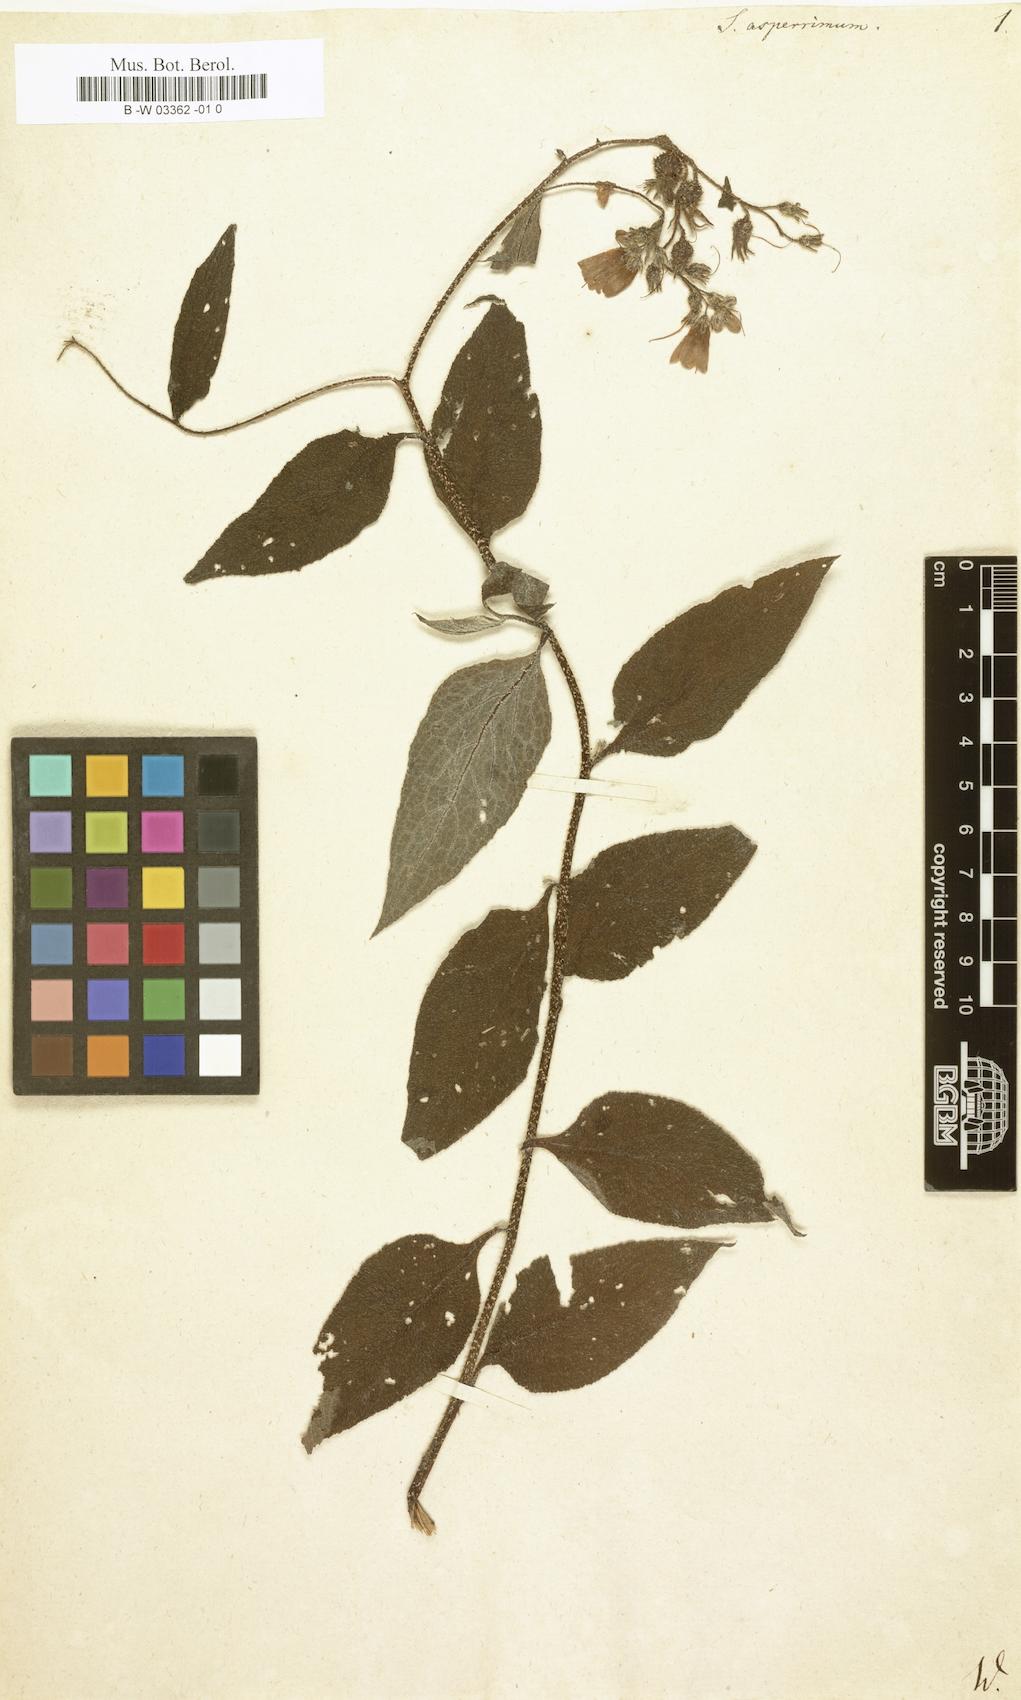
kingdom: Plantae
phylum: Tracheophyta
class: Magnoliopsida
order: Boraginales
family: Boraginaceae
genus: Symphytum
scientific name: Symphytum asperum
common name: Prickly comfrey
